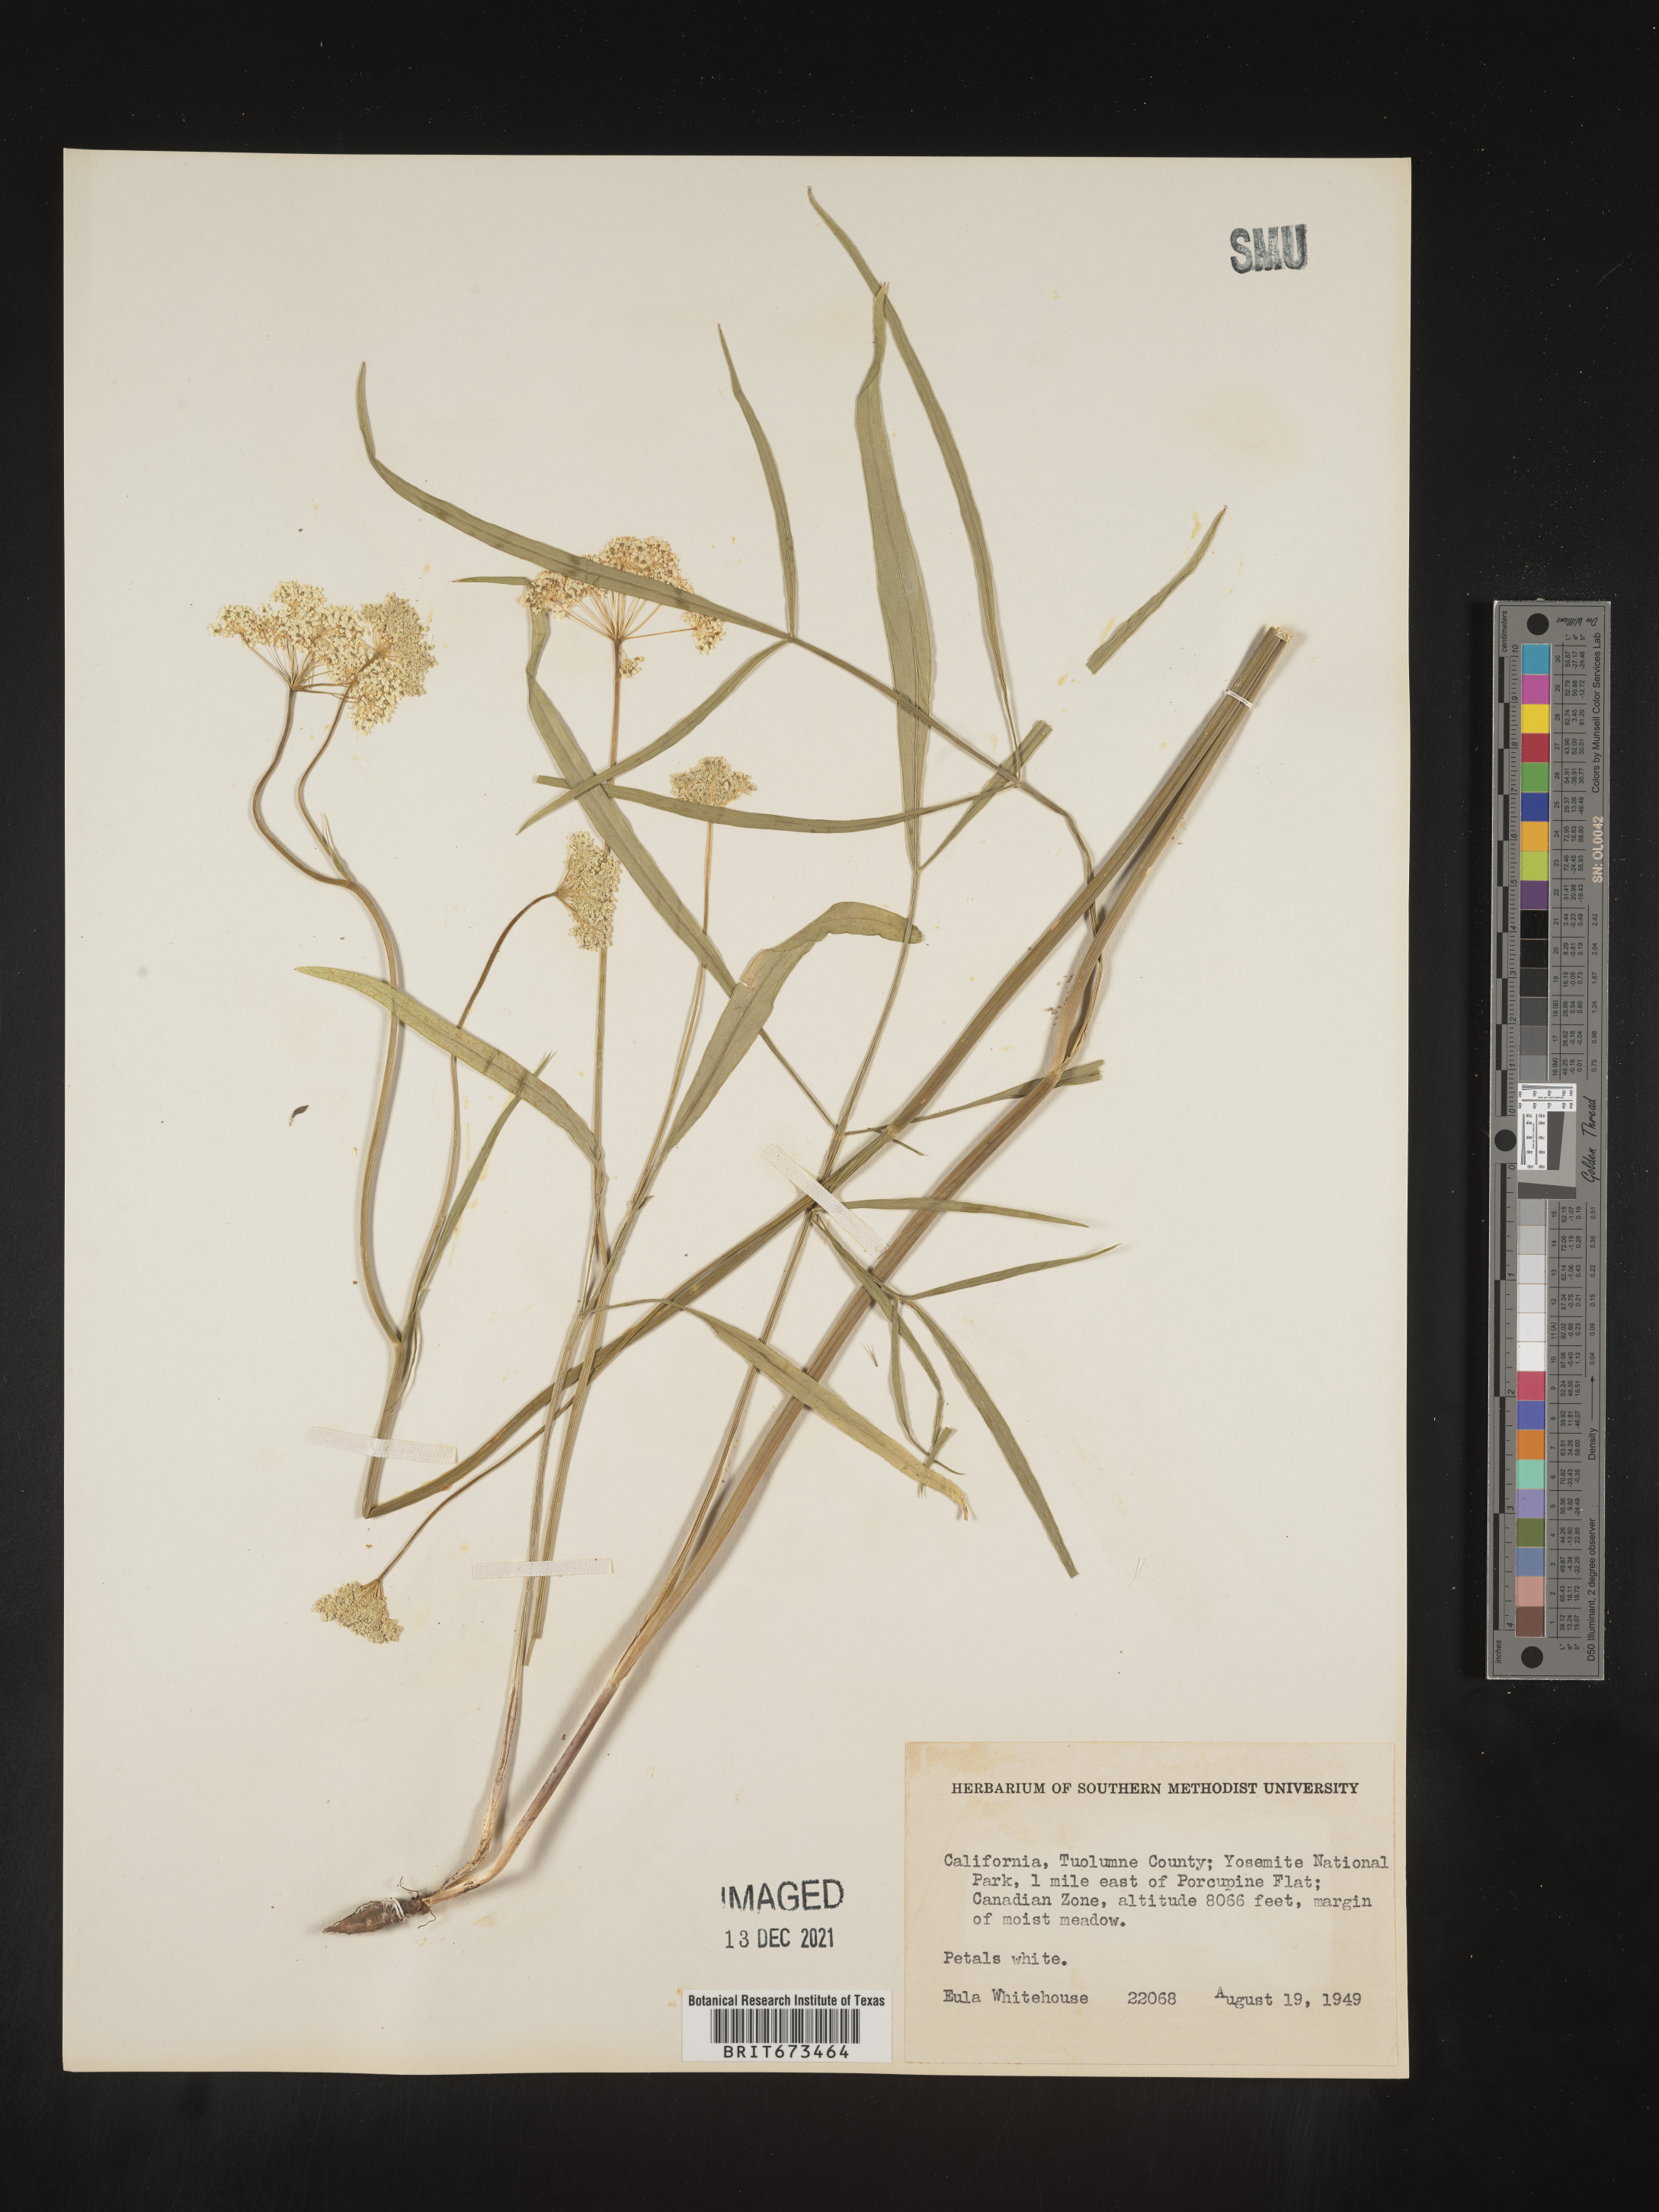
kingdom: Plantae
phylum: Tracheophyta
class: Magnoliopsida
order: Apiales
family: Apiaceae
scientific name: Apiaceae
